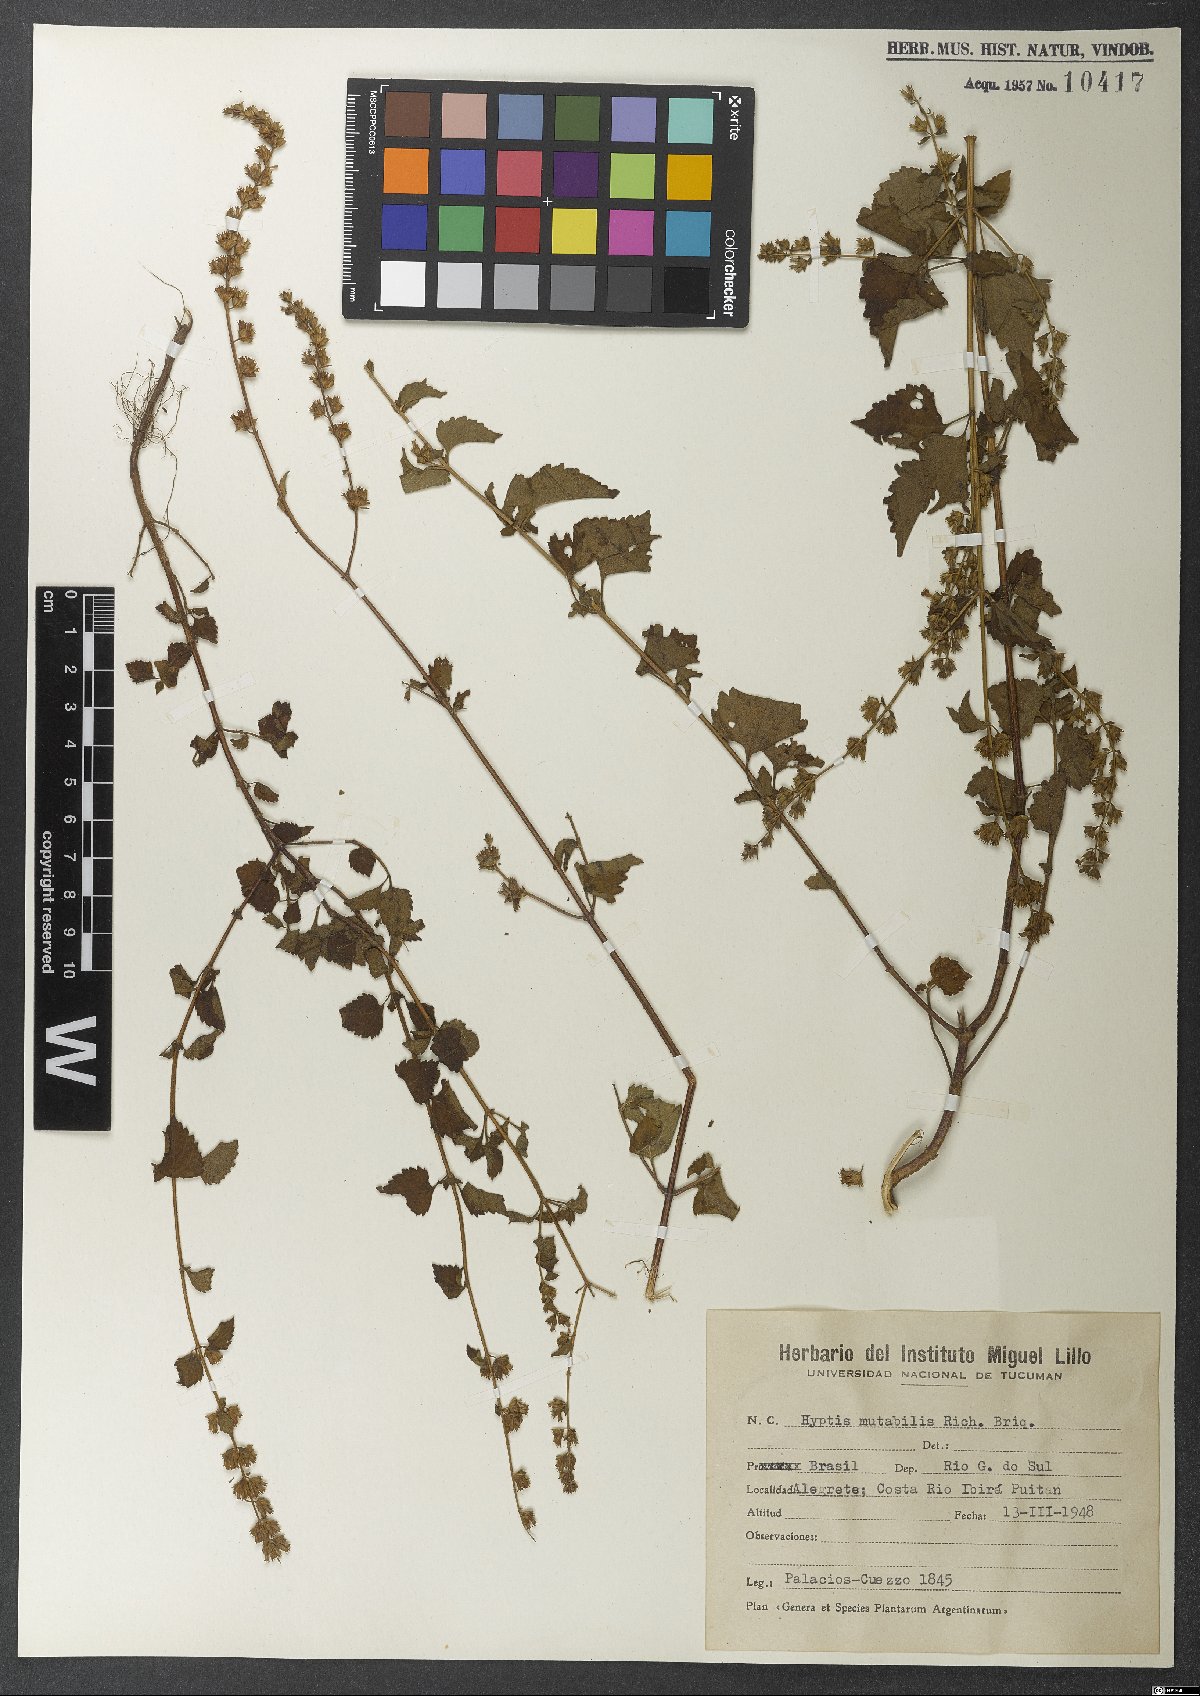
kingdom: Plantae
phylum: Tracheophyta
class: Magnoliopsida
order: Lamiales
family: Lamiaceae
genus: Cantinoa
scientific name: Cantinoa mutabilis
